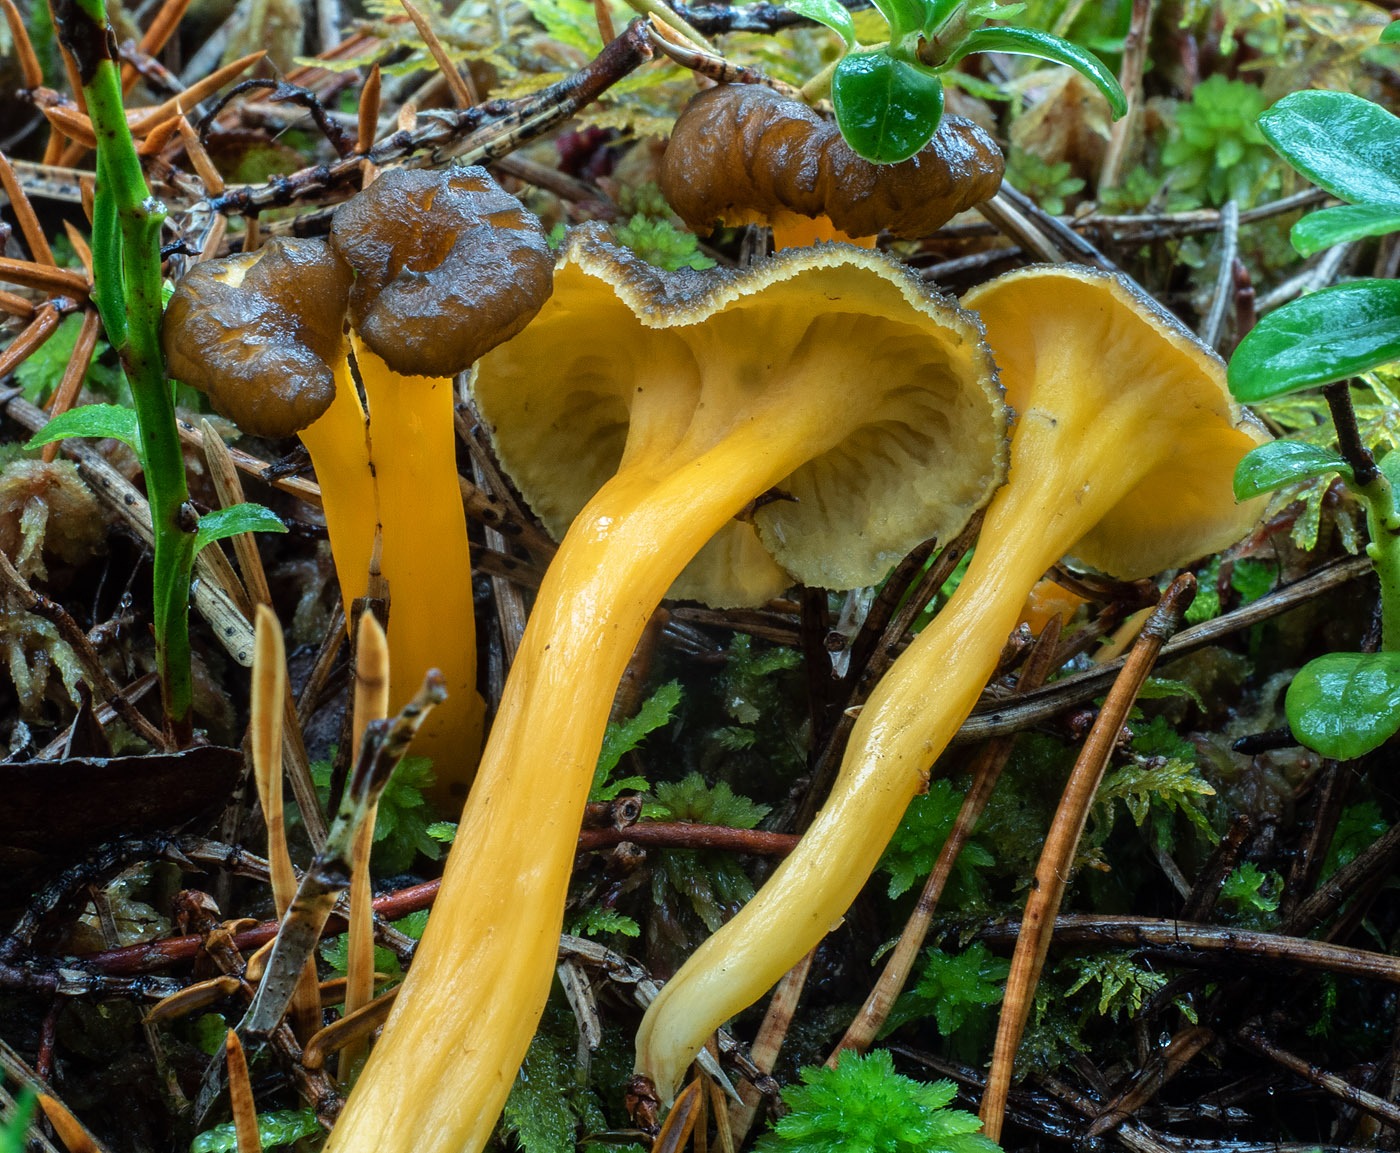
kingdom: Fungi
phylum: Basidiomycota
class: Agaricomycetes
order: Cantharellales
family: Hydnaceae
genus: Craterellus
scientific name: Craterellus lutescens
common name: gylden kantarel
